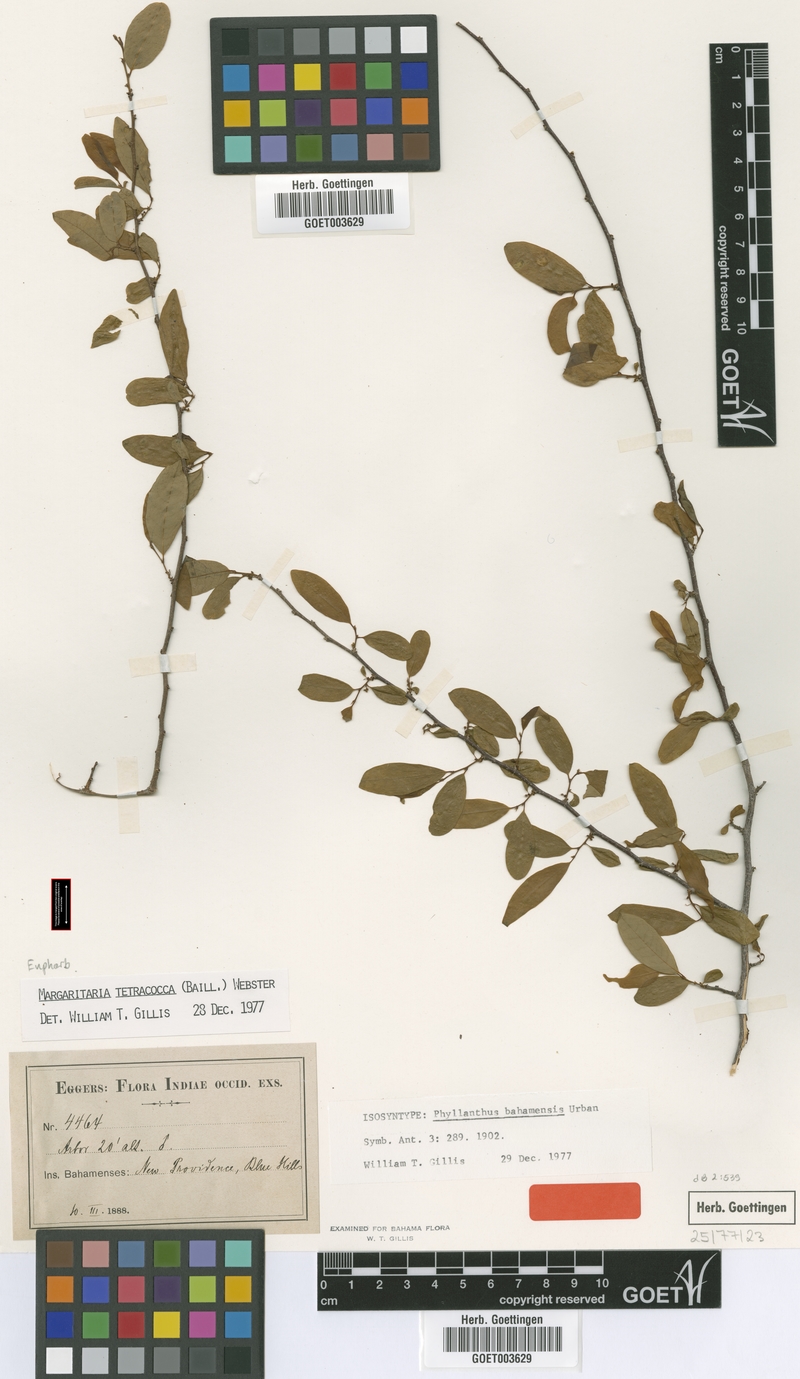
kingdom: Plantae
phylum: Tracheophyta
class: Magnoliopsida
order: Malpighiales
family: Phyllanthaceae
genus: Margaritaria
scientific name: Margaritaria tetracocca
